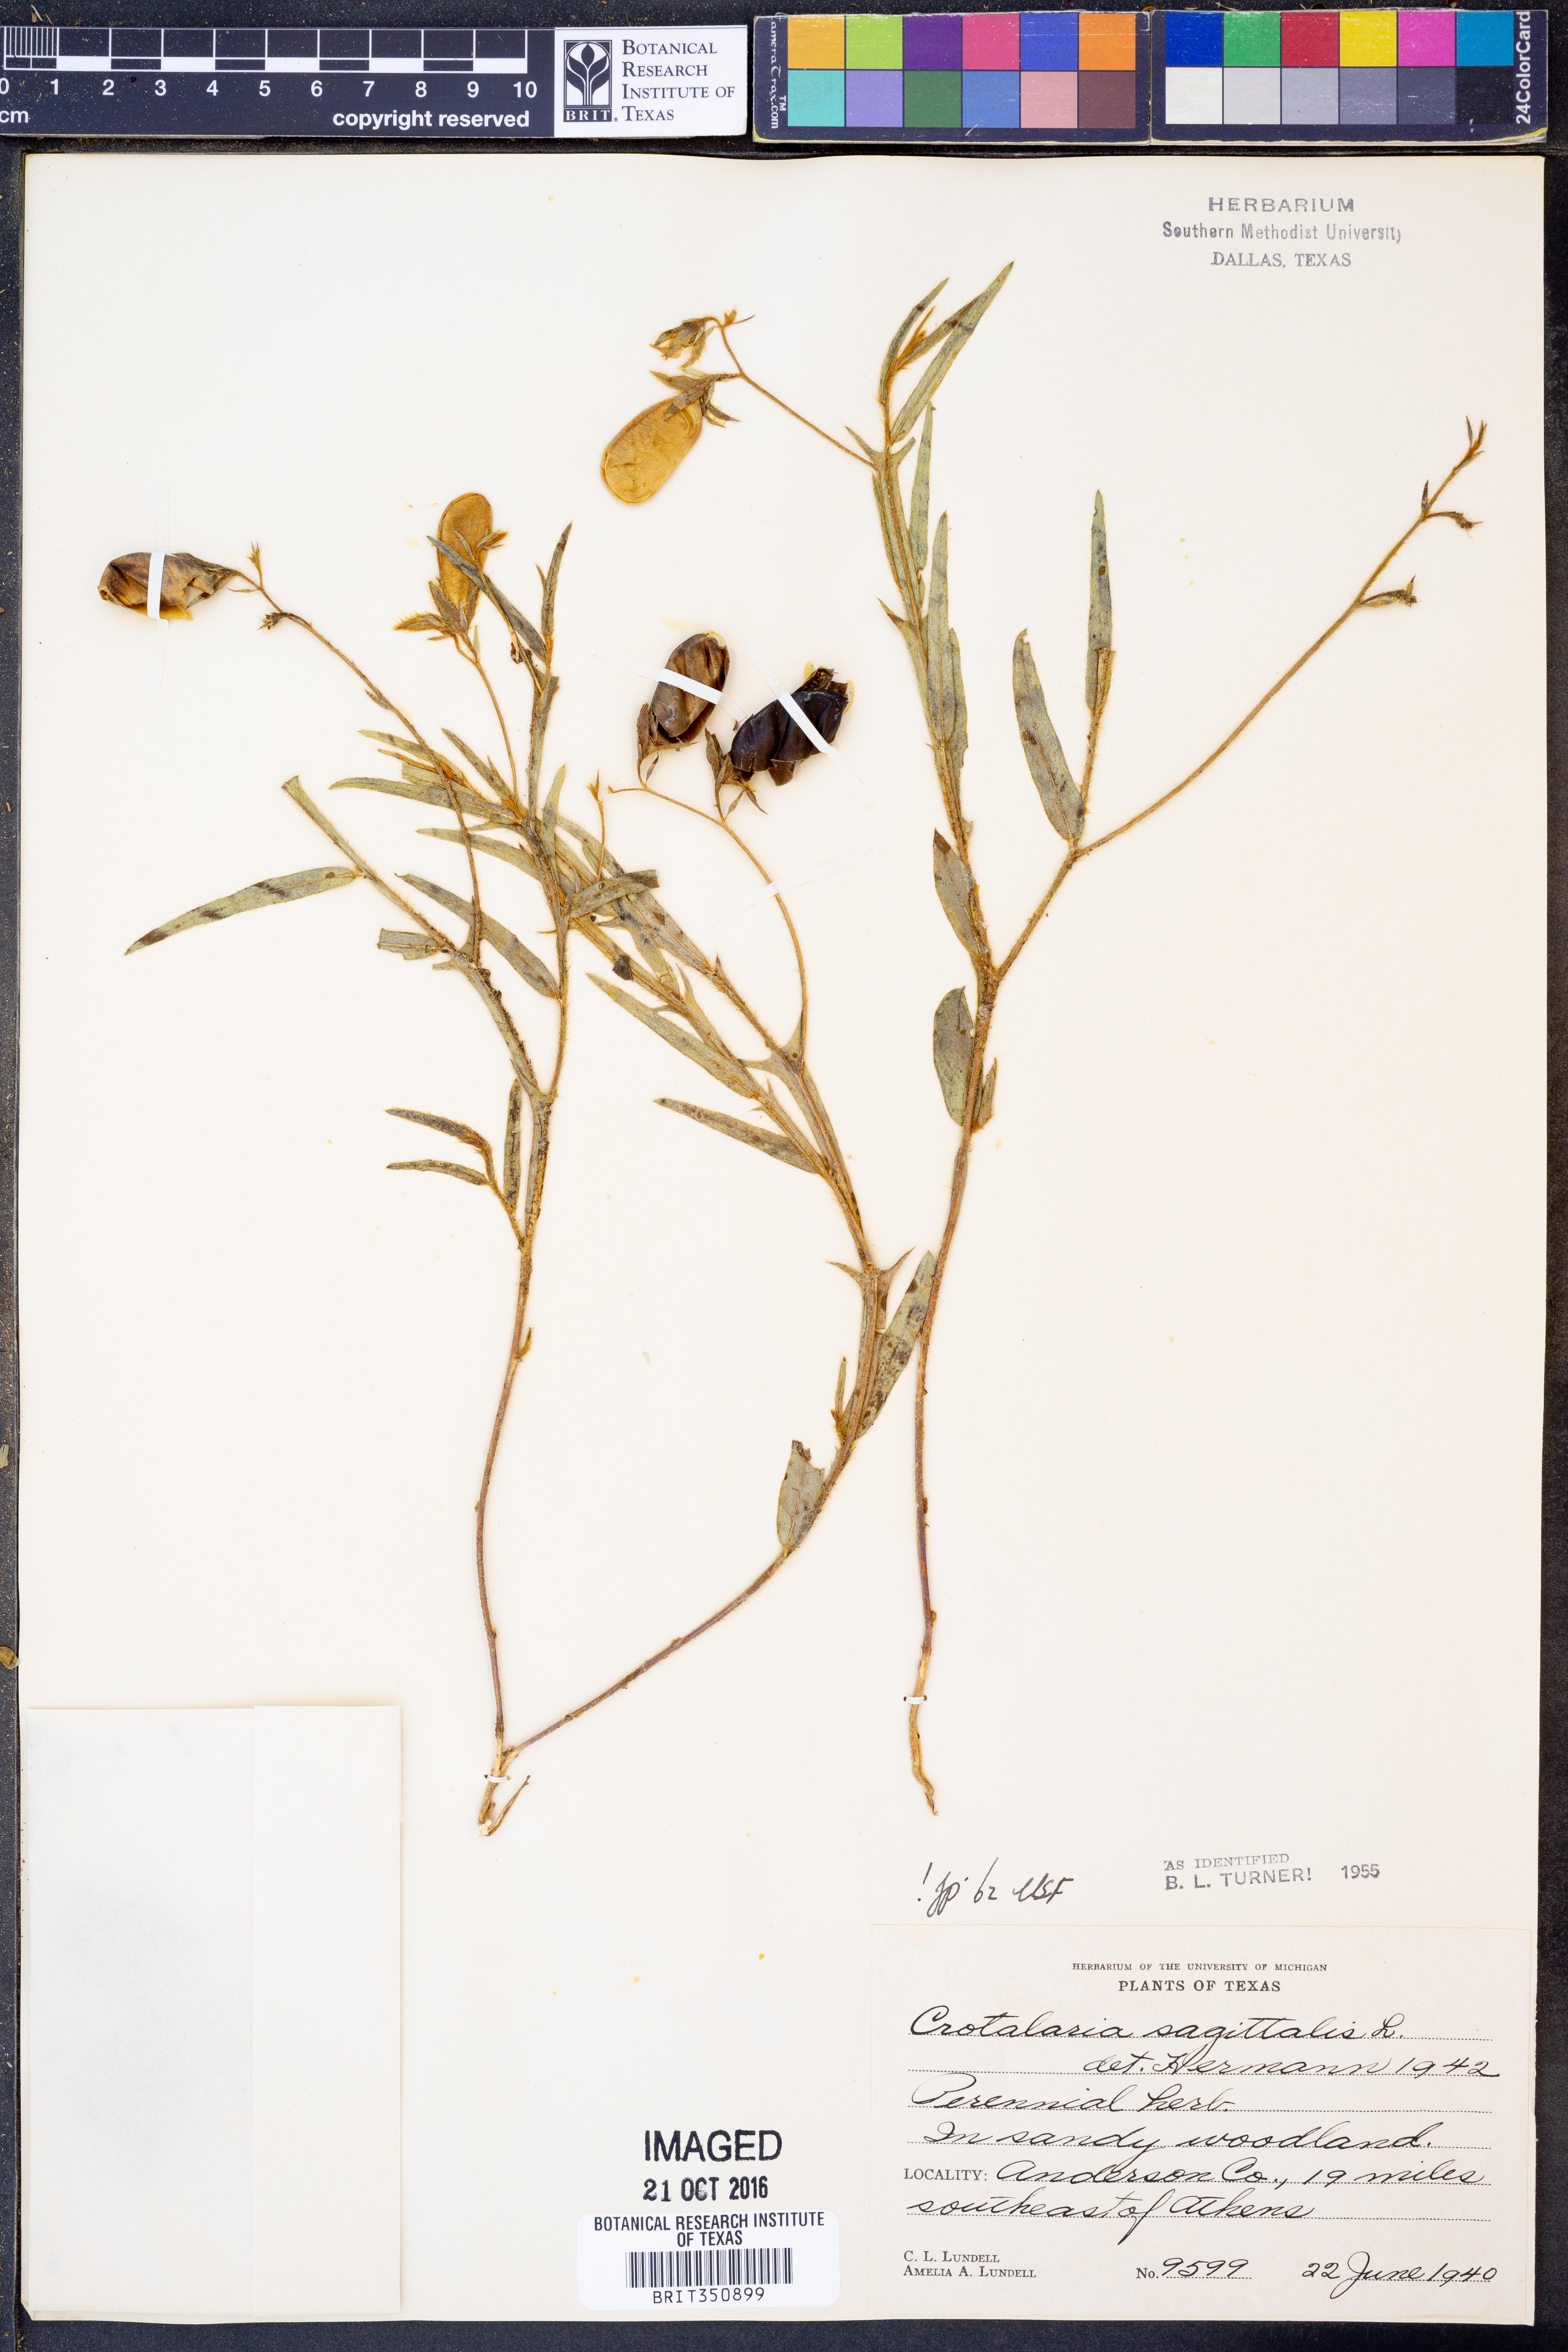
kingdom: Plantae
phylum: Tracheophyta
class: Magnoliopsida
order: Fabales
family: Fabaceae
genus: Crotalaria
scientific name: Crotalaria sagittalis
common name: Arrowhead rattlebox
